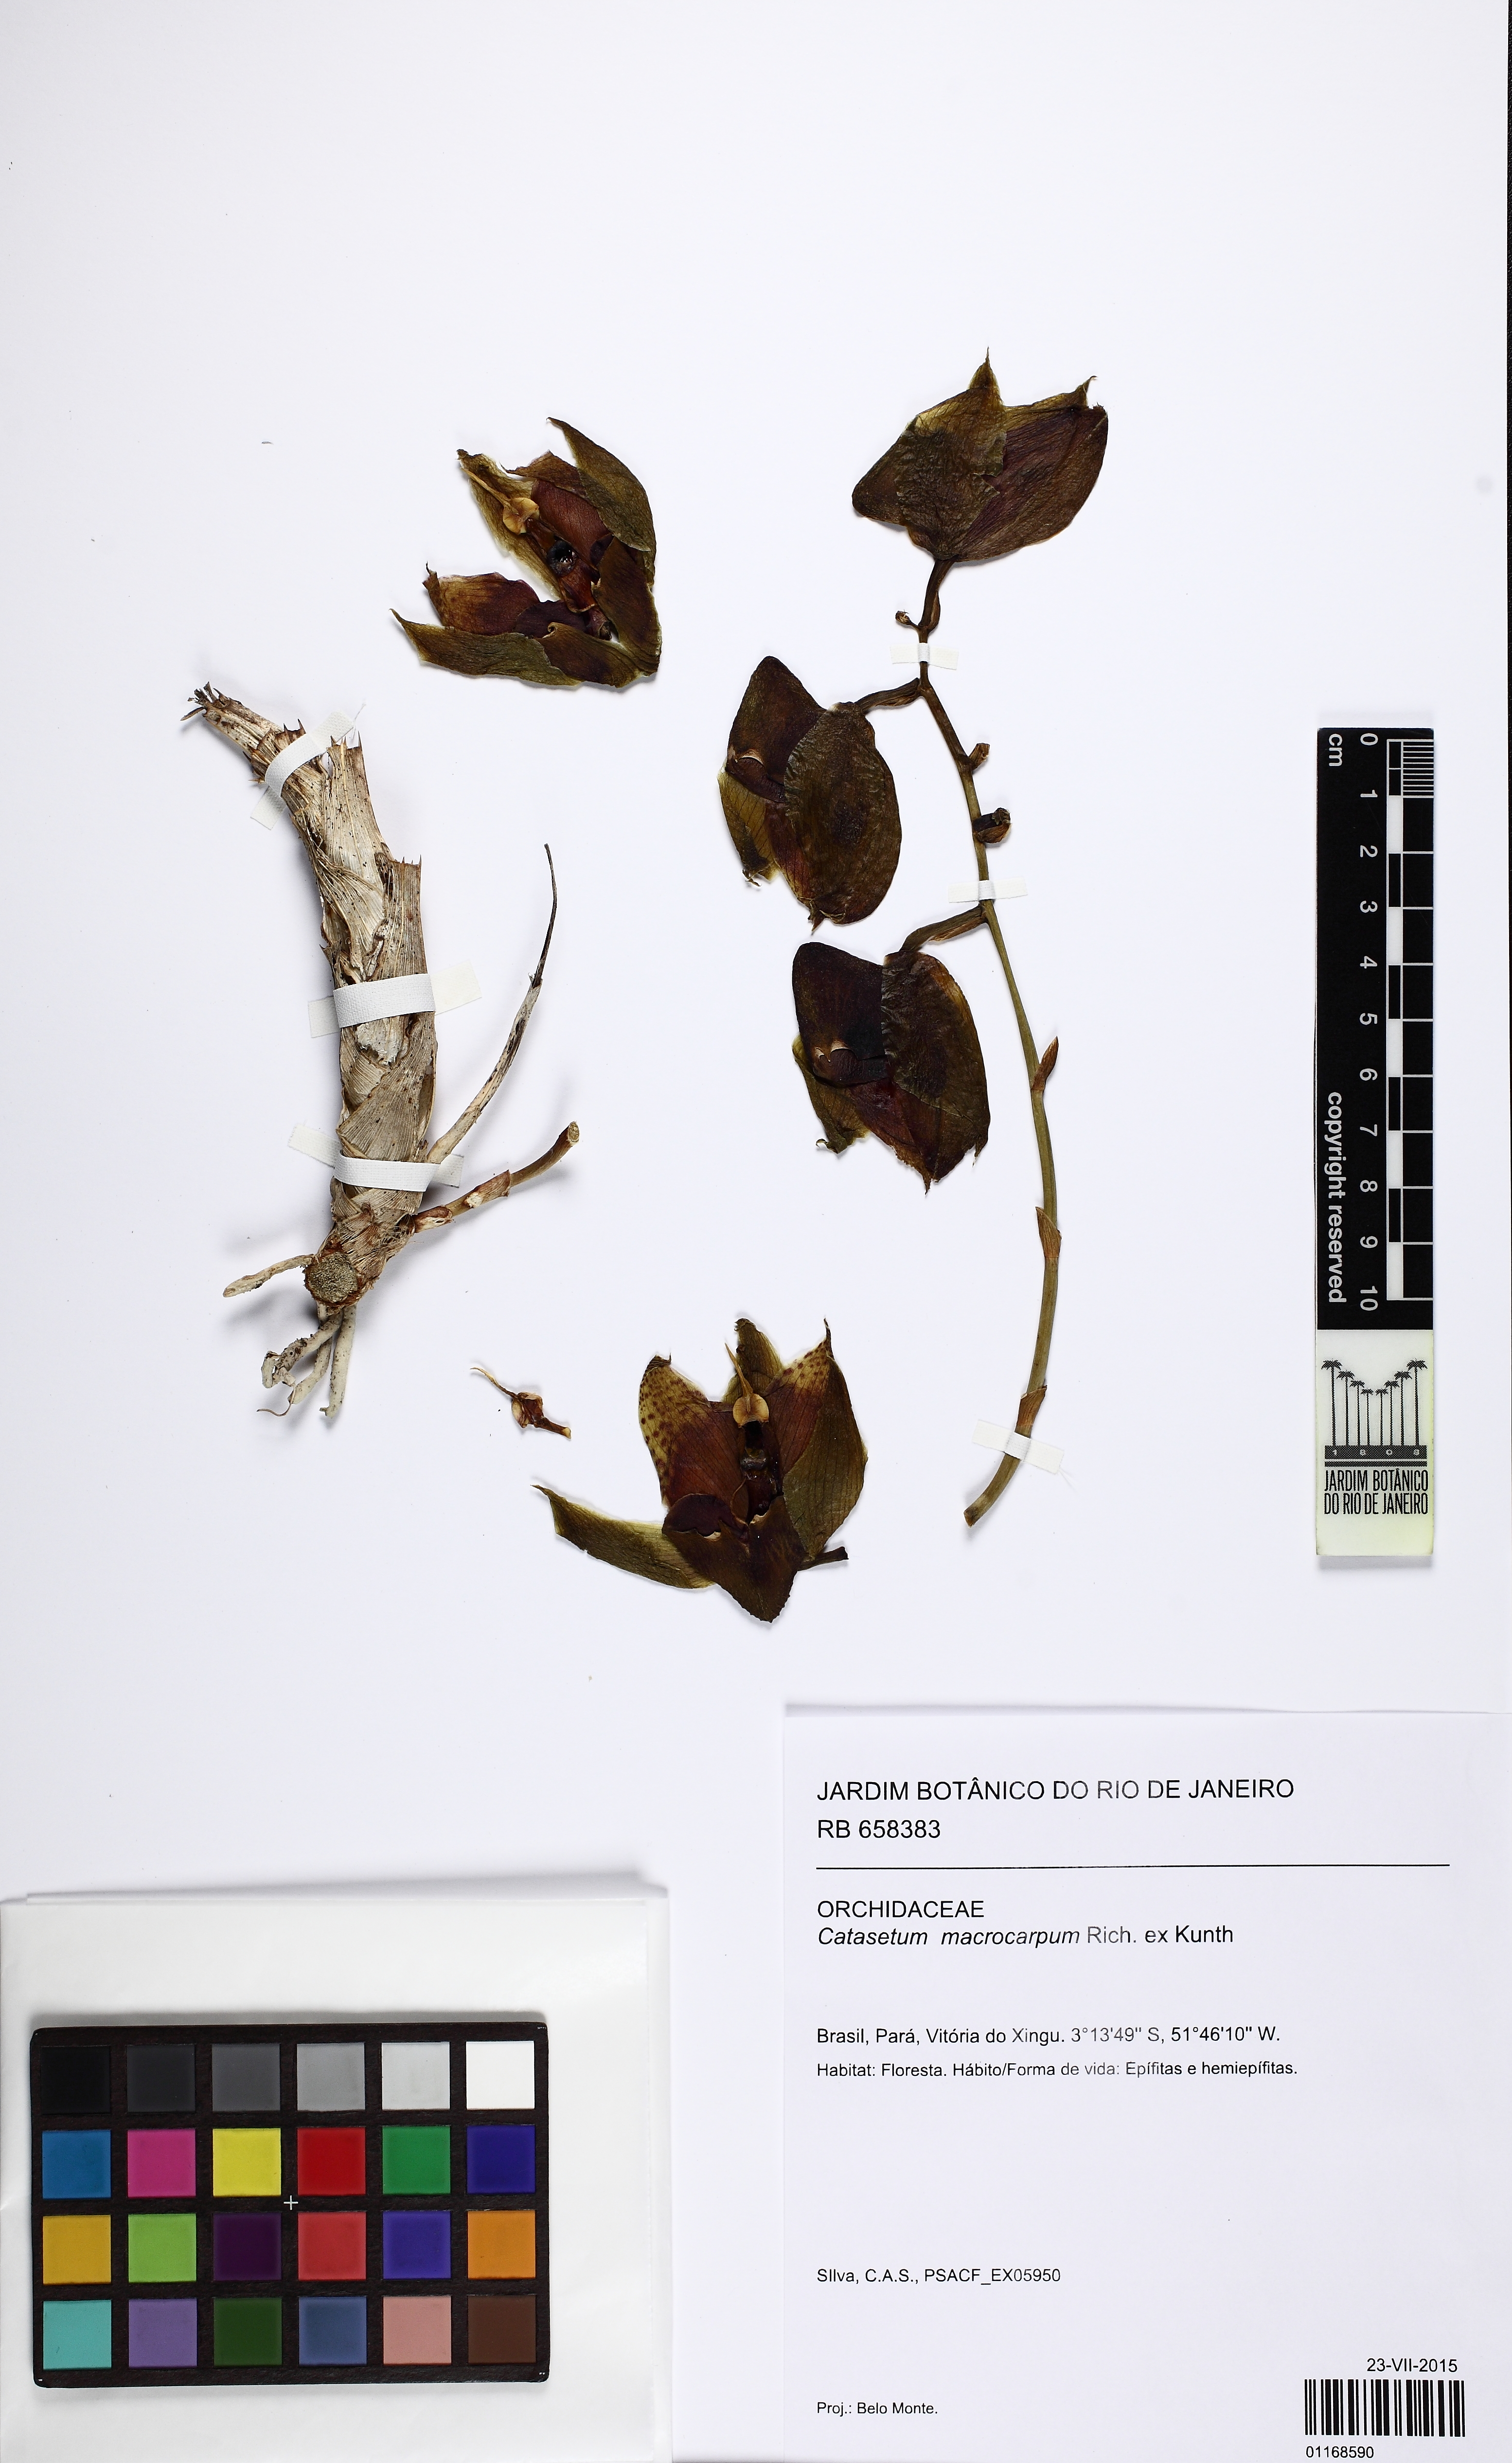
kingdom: Plantae
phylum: Tracheophyta
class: Liliopsida
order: Asparagales
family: Orchidaceae
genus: Catasetum
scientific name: Catasetum macrocarpum
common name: Jumping orchid
